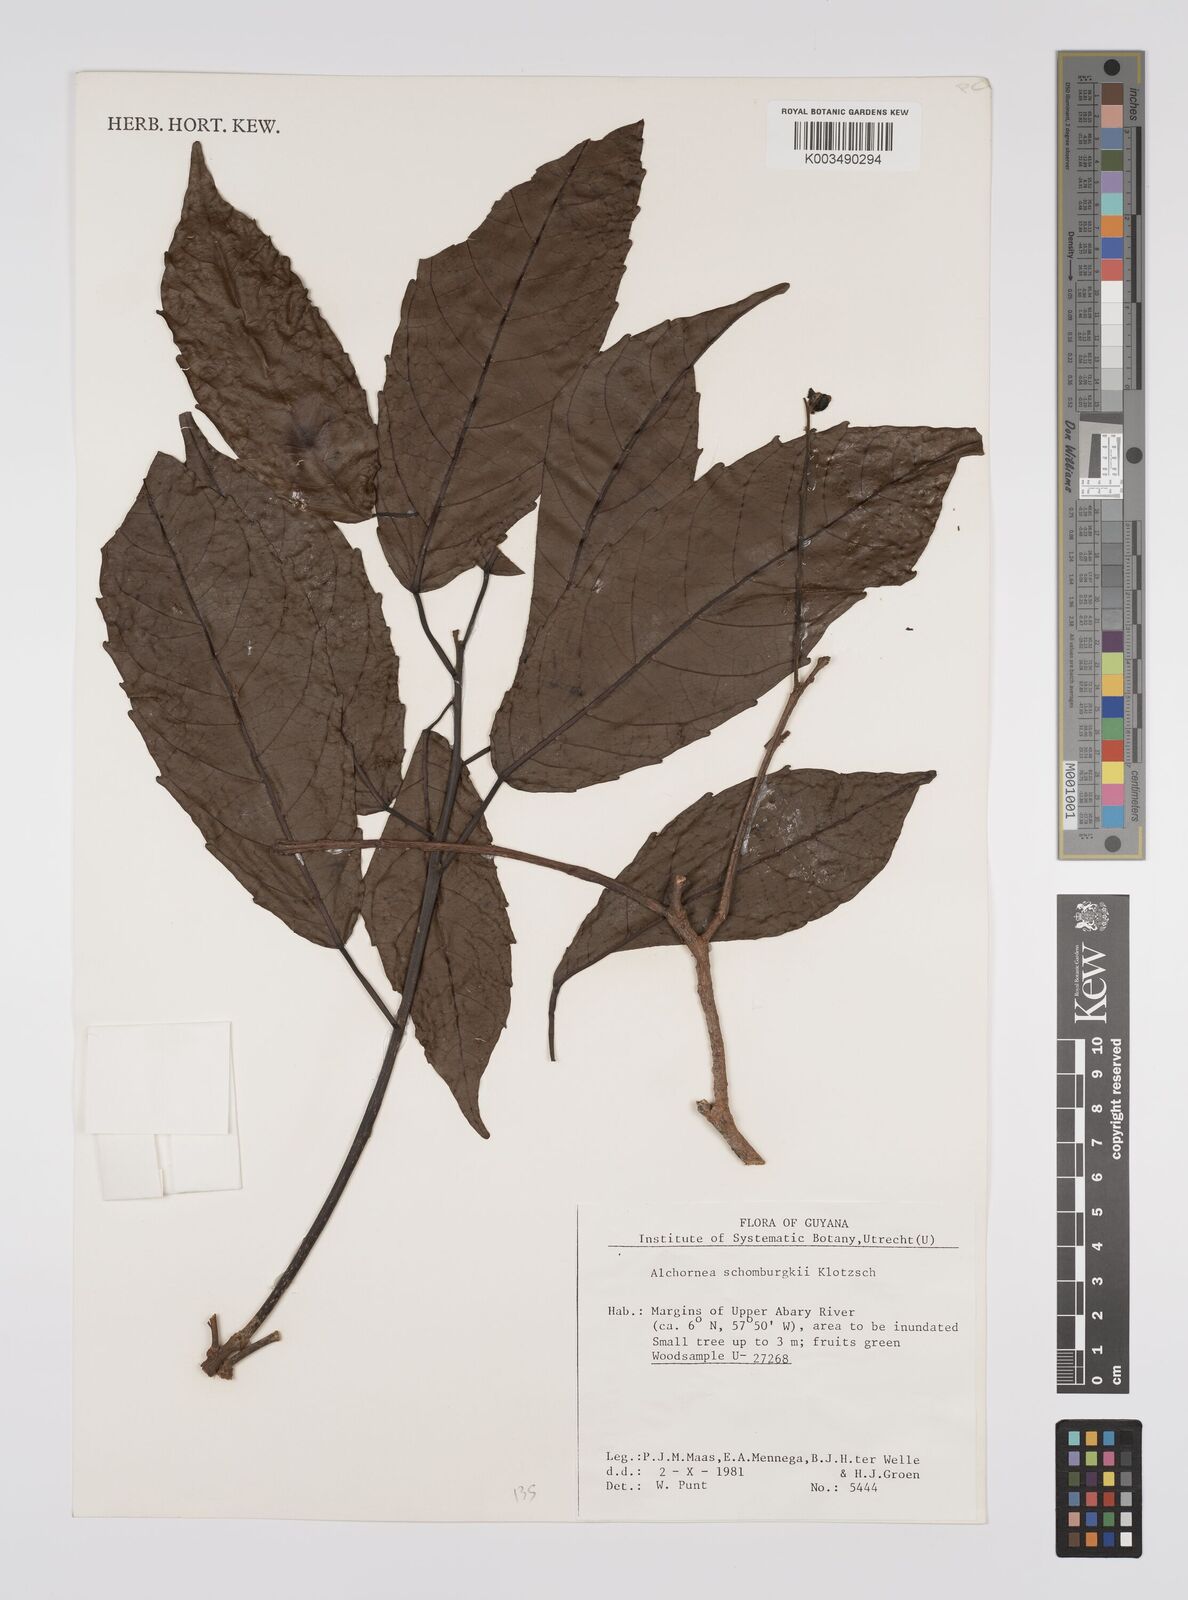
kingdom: Plantae
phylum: Tracheophyta
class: Magnoliopsida
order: Malpighiales
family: Euphorbiaceae
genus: Alchornea
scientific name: Alchornea discolor
